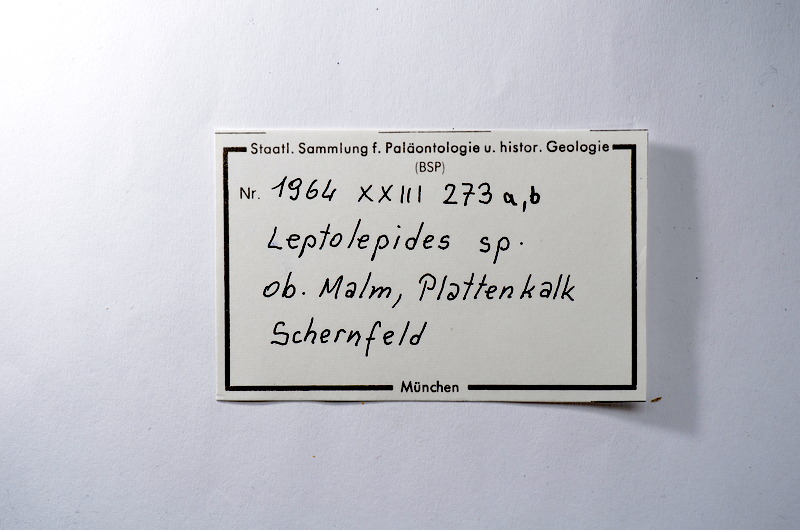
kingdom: Animalia
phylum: Chordata
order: Salmoniformes
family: Orthogonikleithridae
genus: Leptolepides
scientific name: Leptolepides
